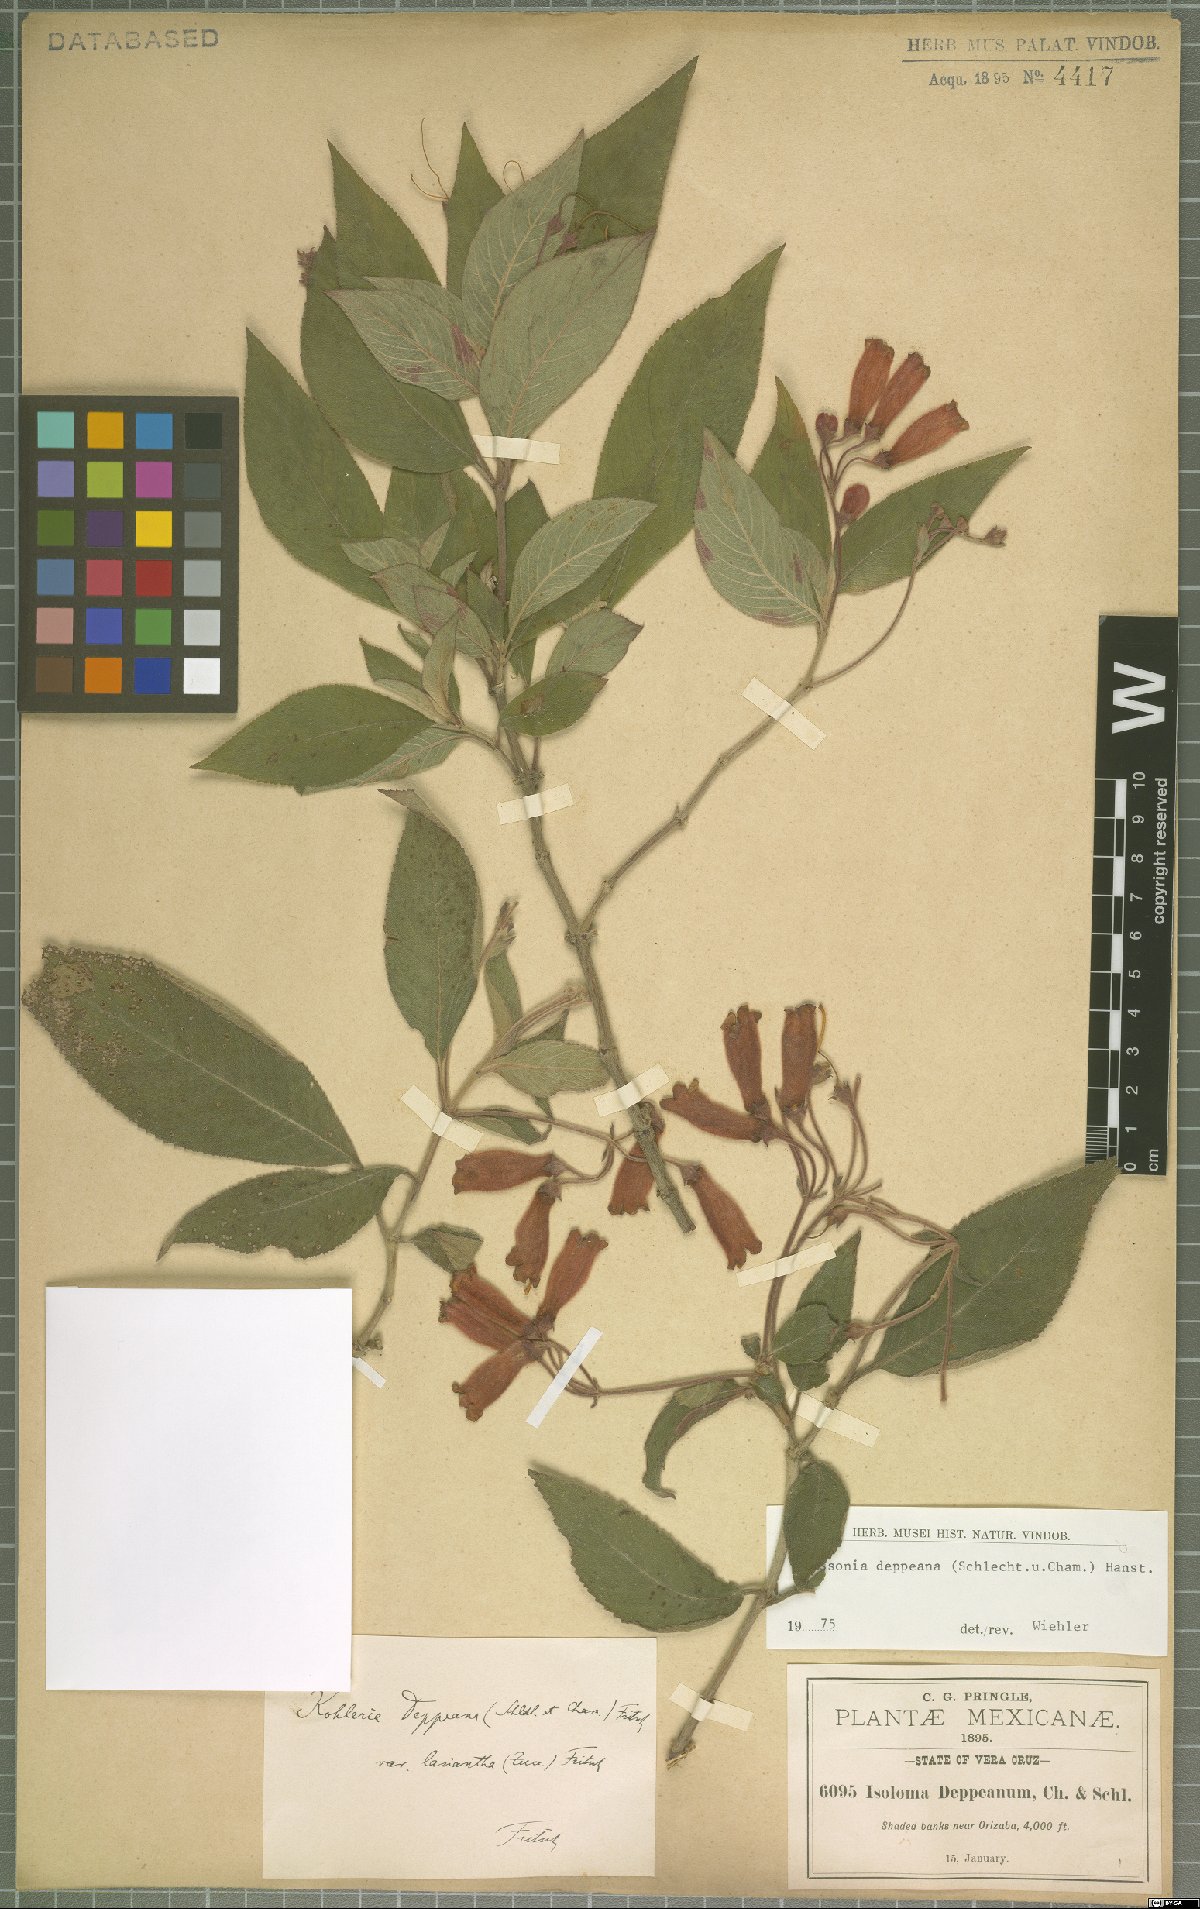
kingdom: Plantae
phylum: Tracheophyta
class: Magnoliopsida
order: Lamiales
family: Gesneriaceae
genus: Moussonia
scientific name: Moussonia deppeana
